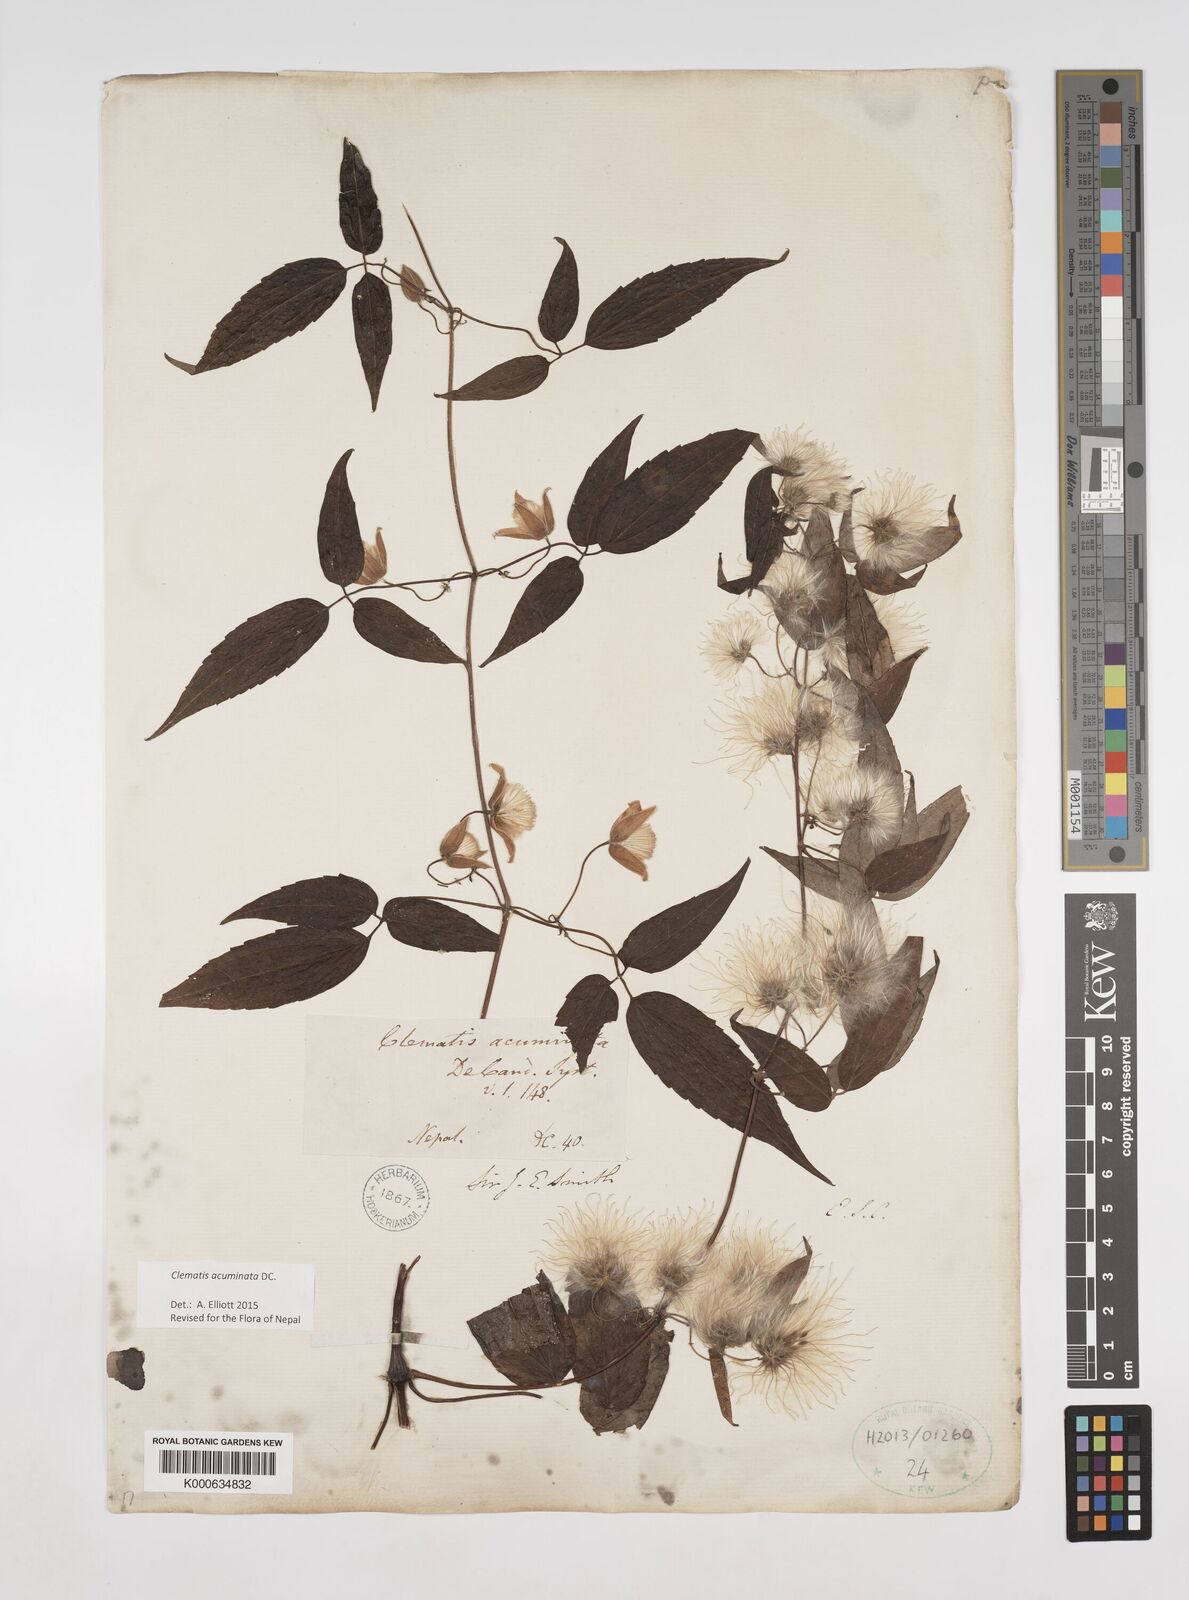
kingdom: Plantae
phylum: Tracheophyta
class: Magnoliopsida
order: Ranunculales
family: Ranunculaceae
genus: Clematis
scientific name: Clematis acuminata
